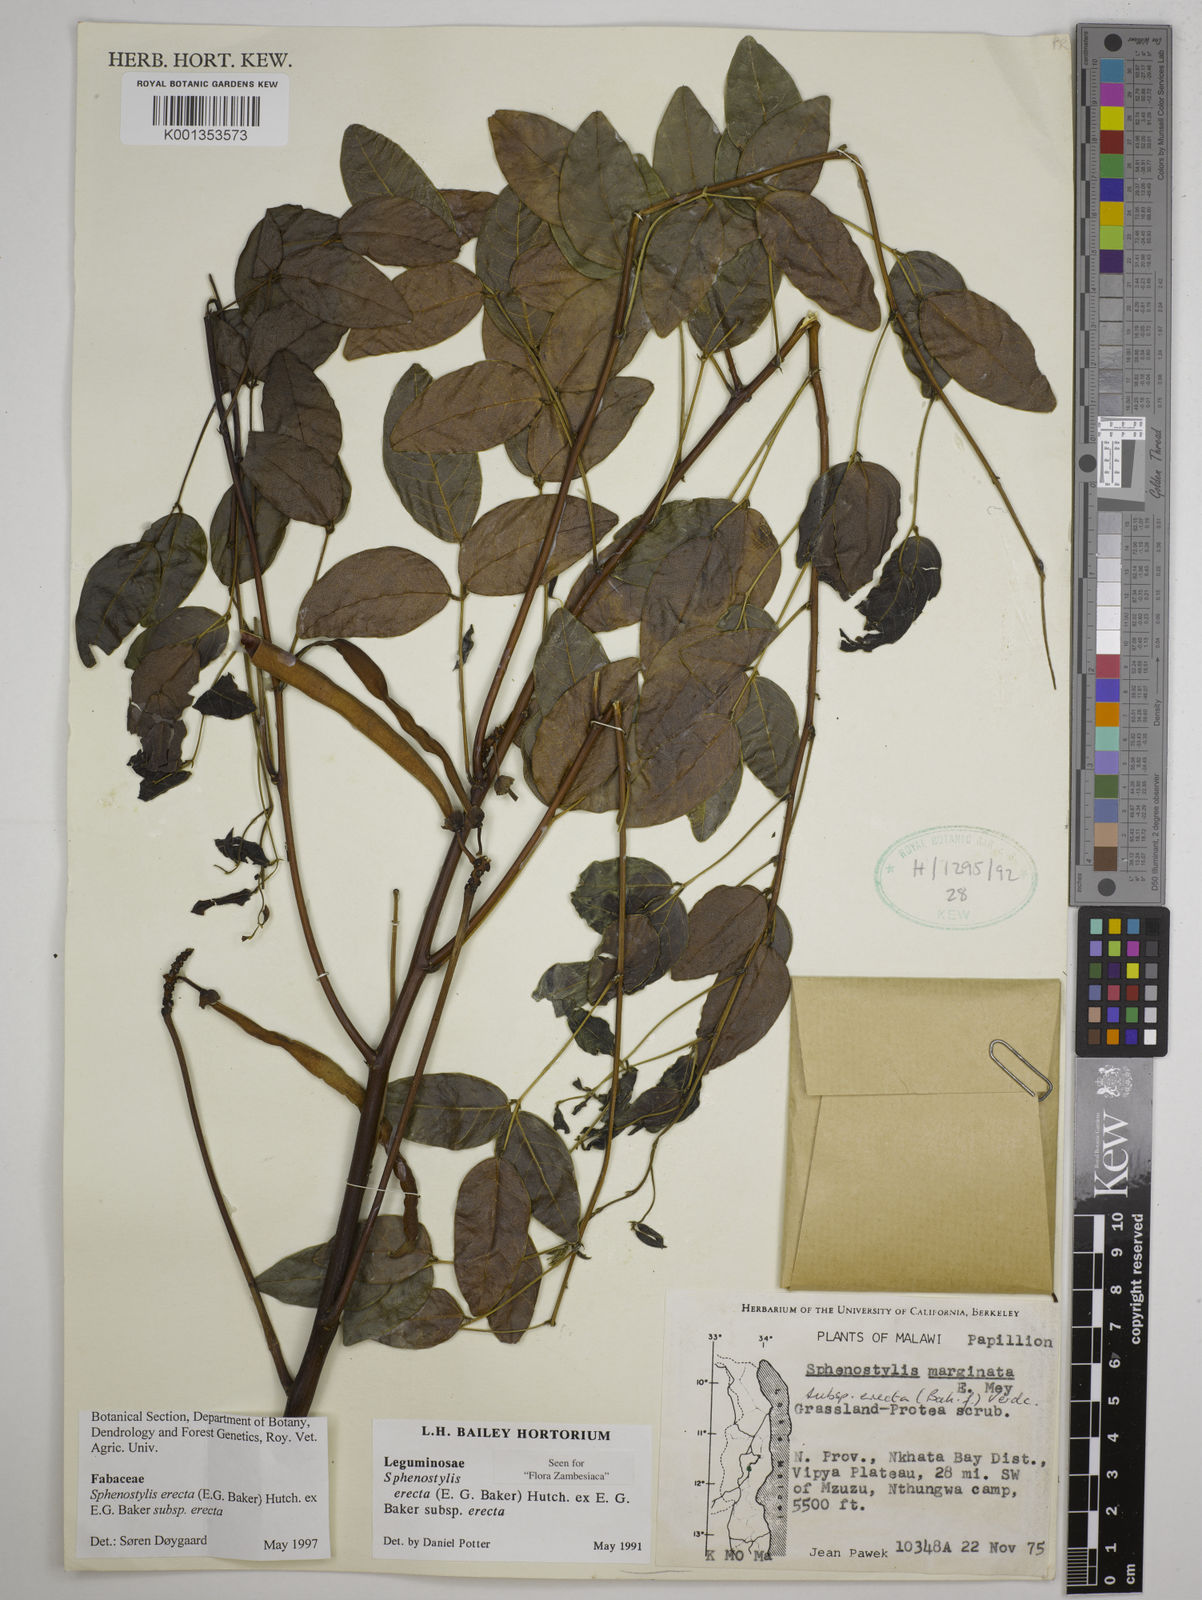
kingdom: Plantae
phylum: Tracheophyta
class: Magnoliopsida
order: Fabales
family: Fabaceae
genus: Sphenostylis
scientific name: Sphenostylis erecta
